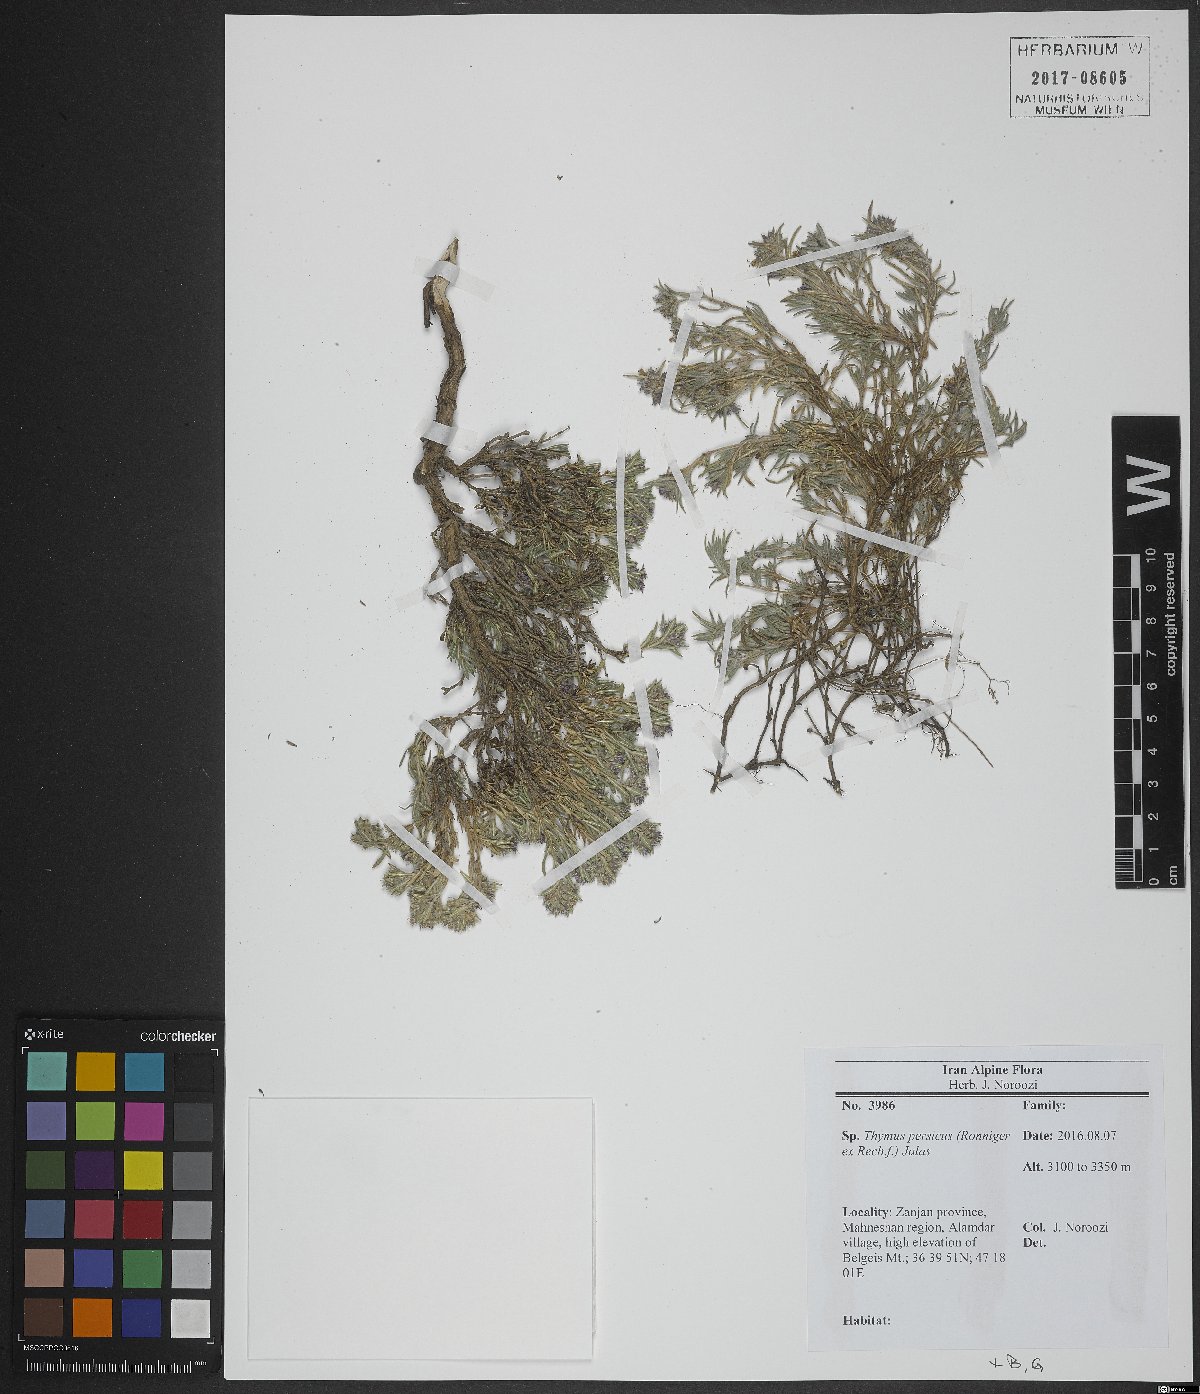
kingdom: Plantae
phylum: Tracheophyta
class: Magnoliopsida
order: Lamiales
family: Lamiaceae
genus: Thymus
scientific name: Thymus persicus
